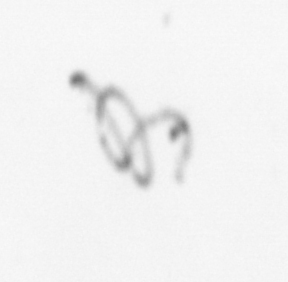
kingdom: Chromista
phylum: Ochrophyta
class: Bacillariophyceae
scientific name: Bacillariophyceae
